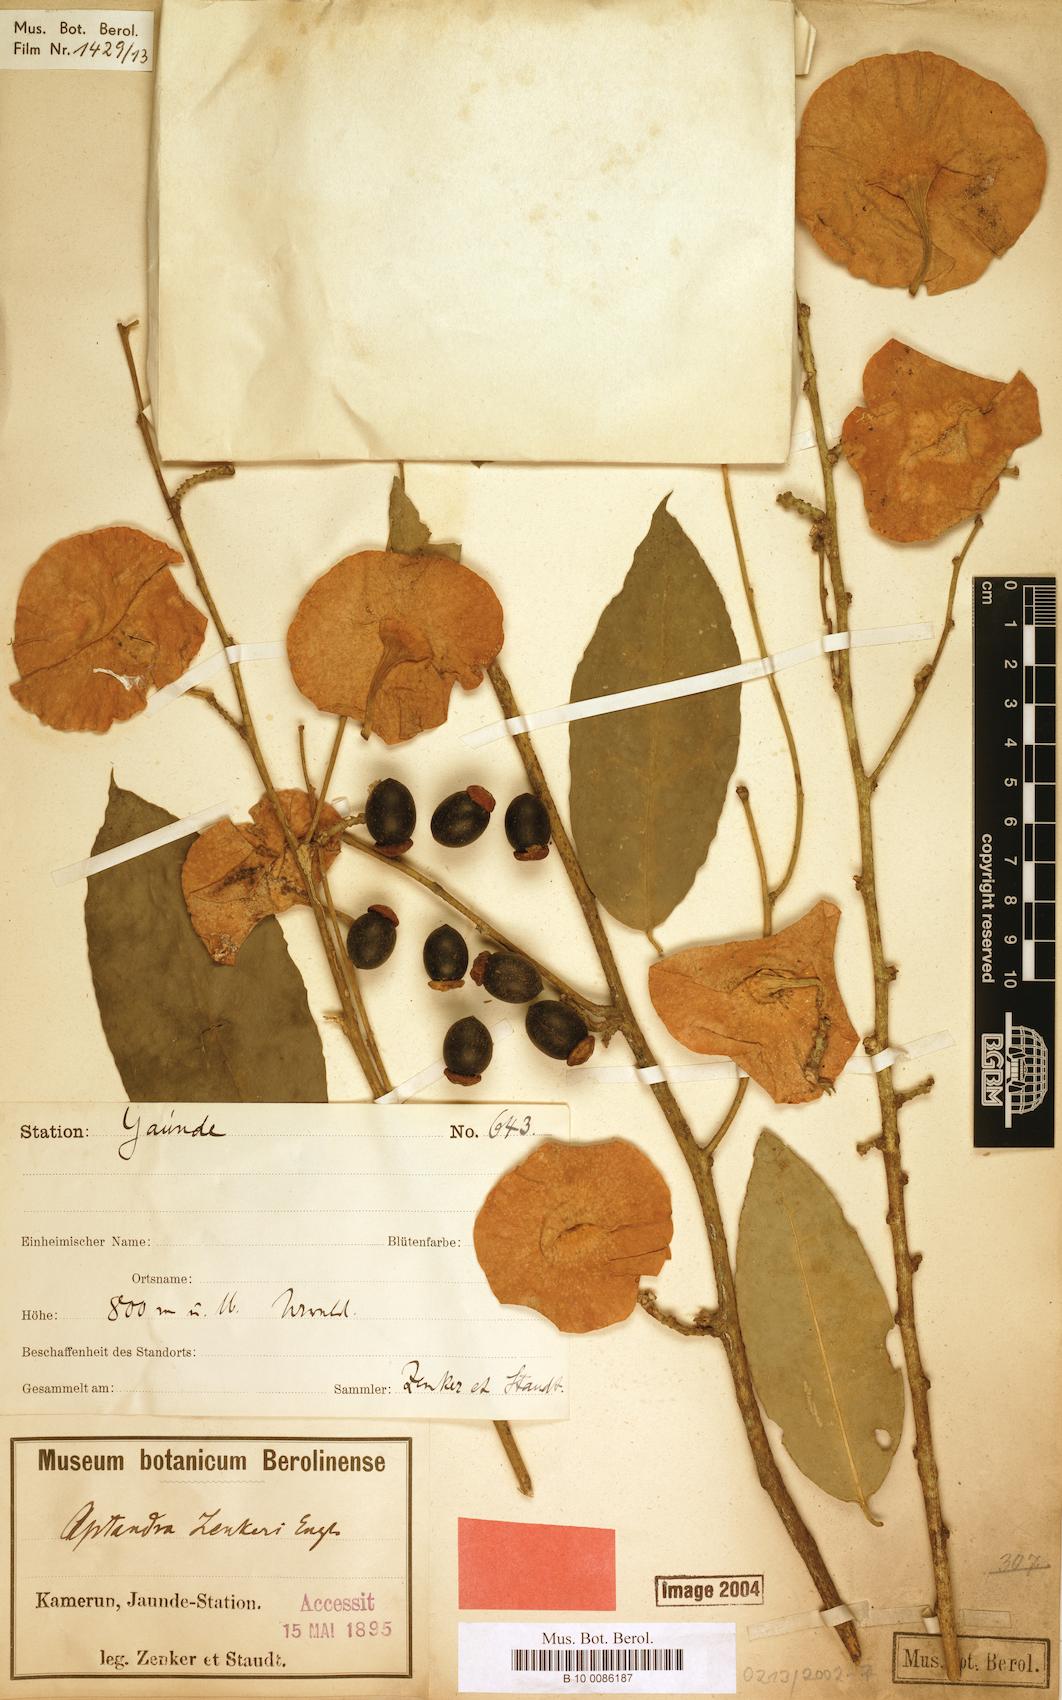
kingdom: Plantae
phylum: Tracheophyta
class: Magnoliopsida
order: Santalales
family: Aptandraceae
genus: Aptandra
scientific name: Aptandra zenkeri
